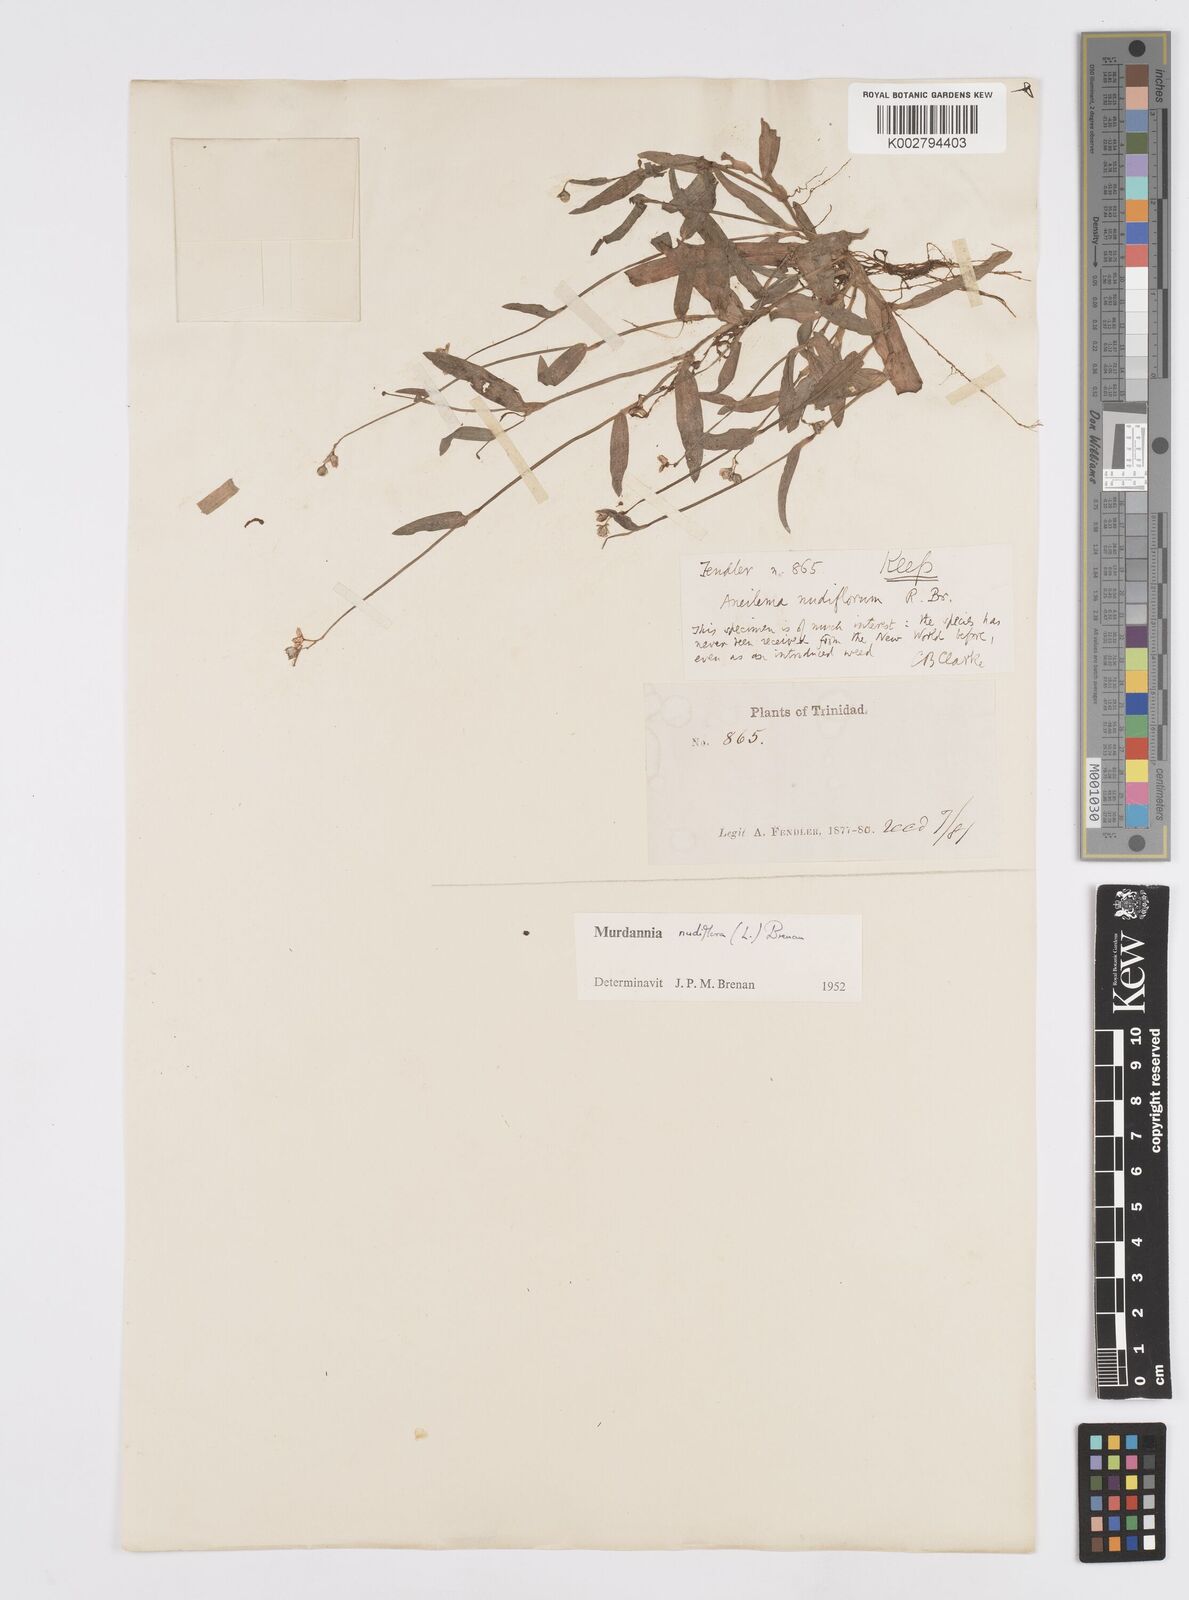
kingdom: Plantae
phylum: Tracheophyta
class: Liliopsida
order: Commelinales
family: Commelinaceae
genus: Murdannia
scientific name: Murdannia nudiflora
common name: Nakedstem dewflower
